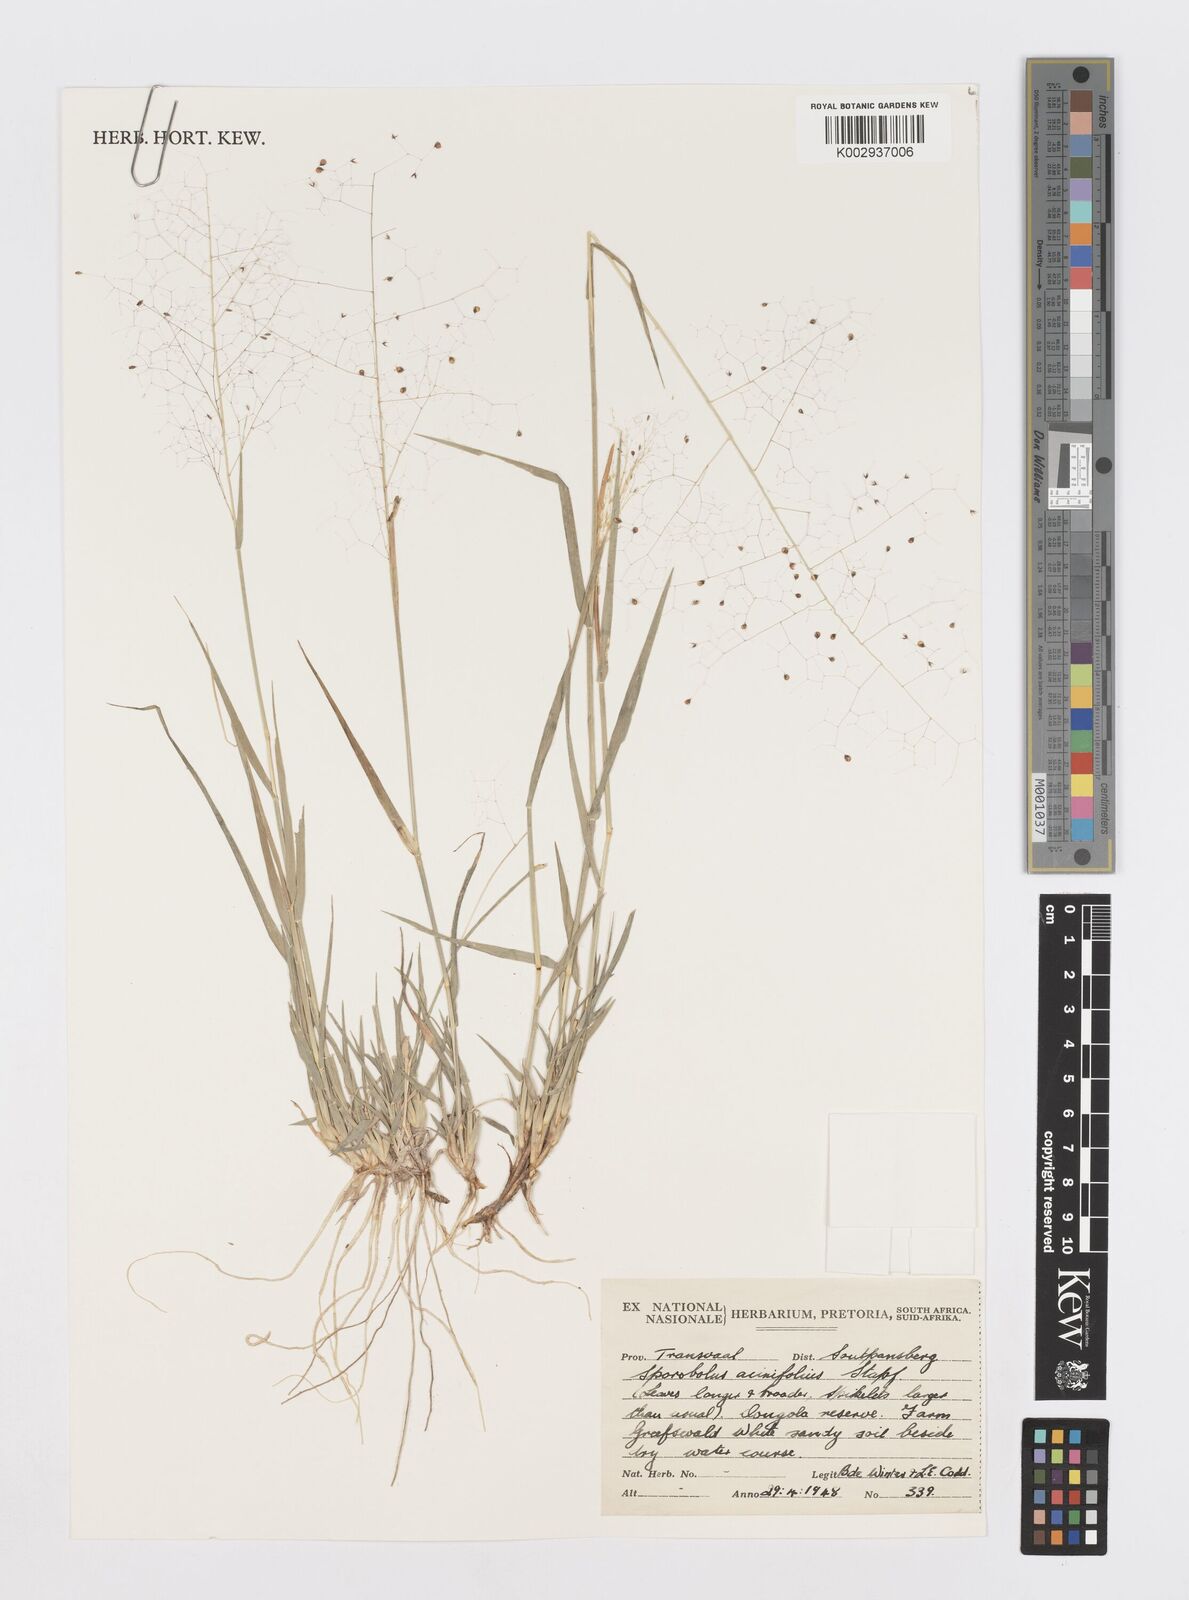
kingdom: Plantae
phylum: Tracheophyta
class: Liliopsida
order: Poales
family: Poaceae
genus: Sporobolus
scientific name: Sporobolus salsus
